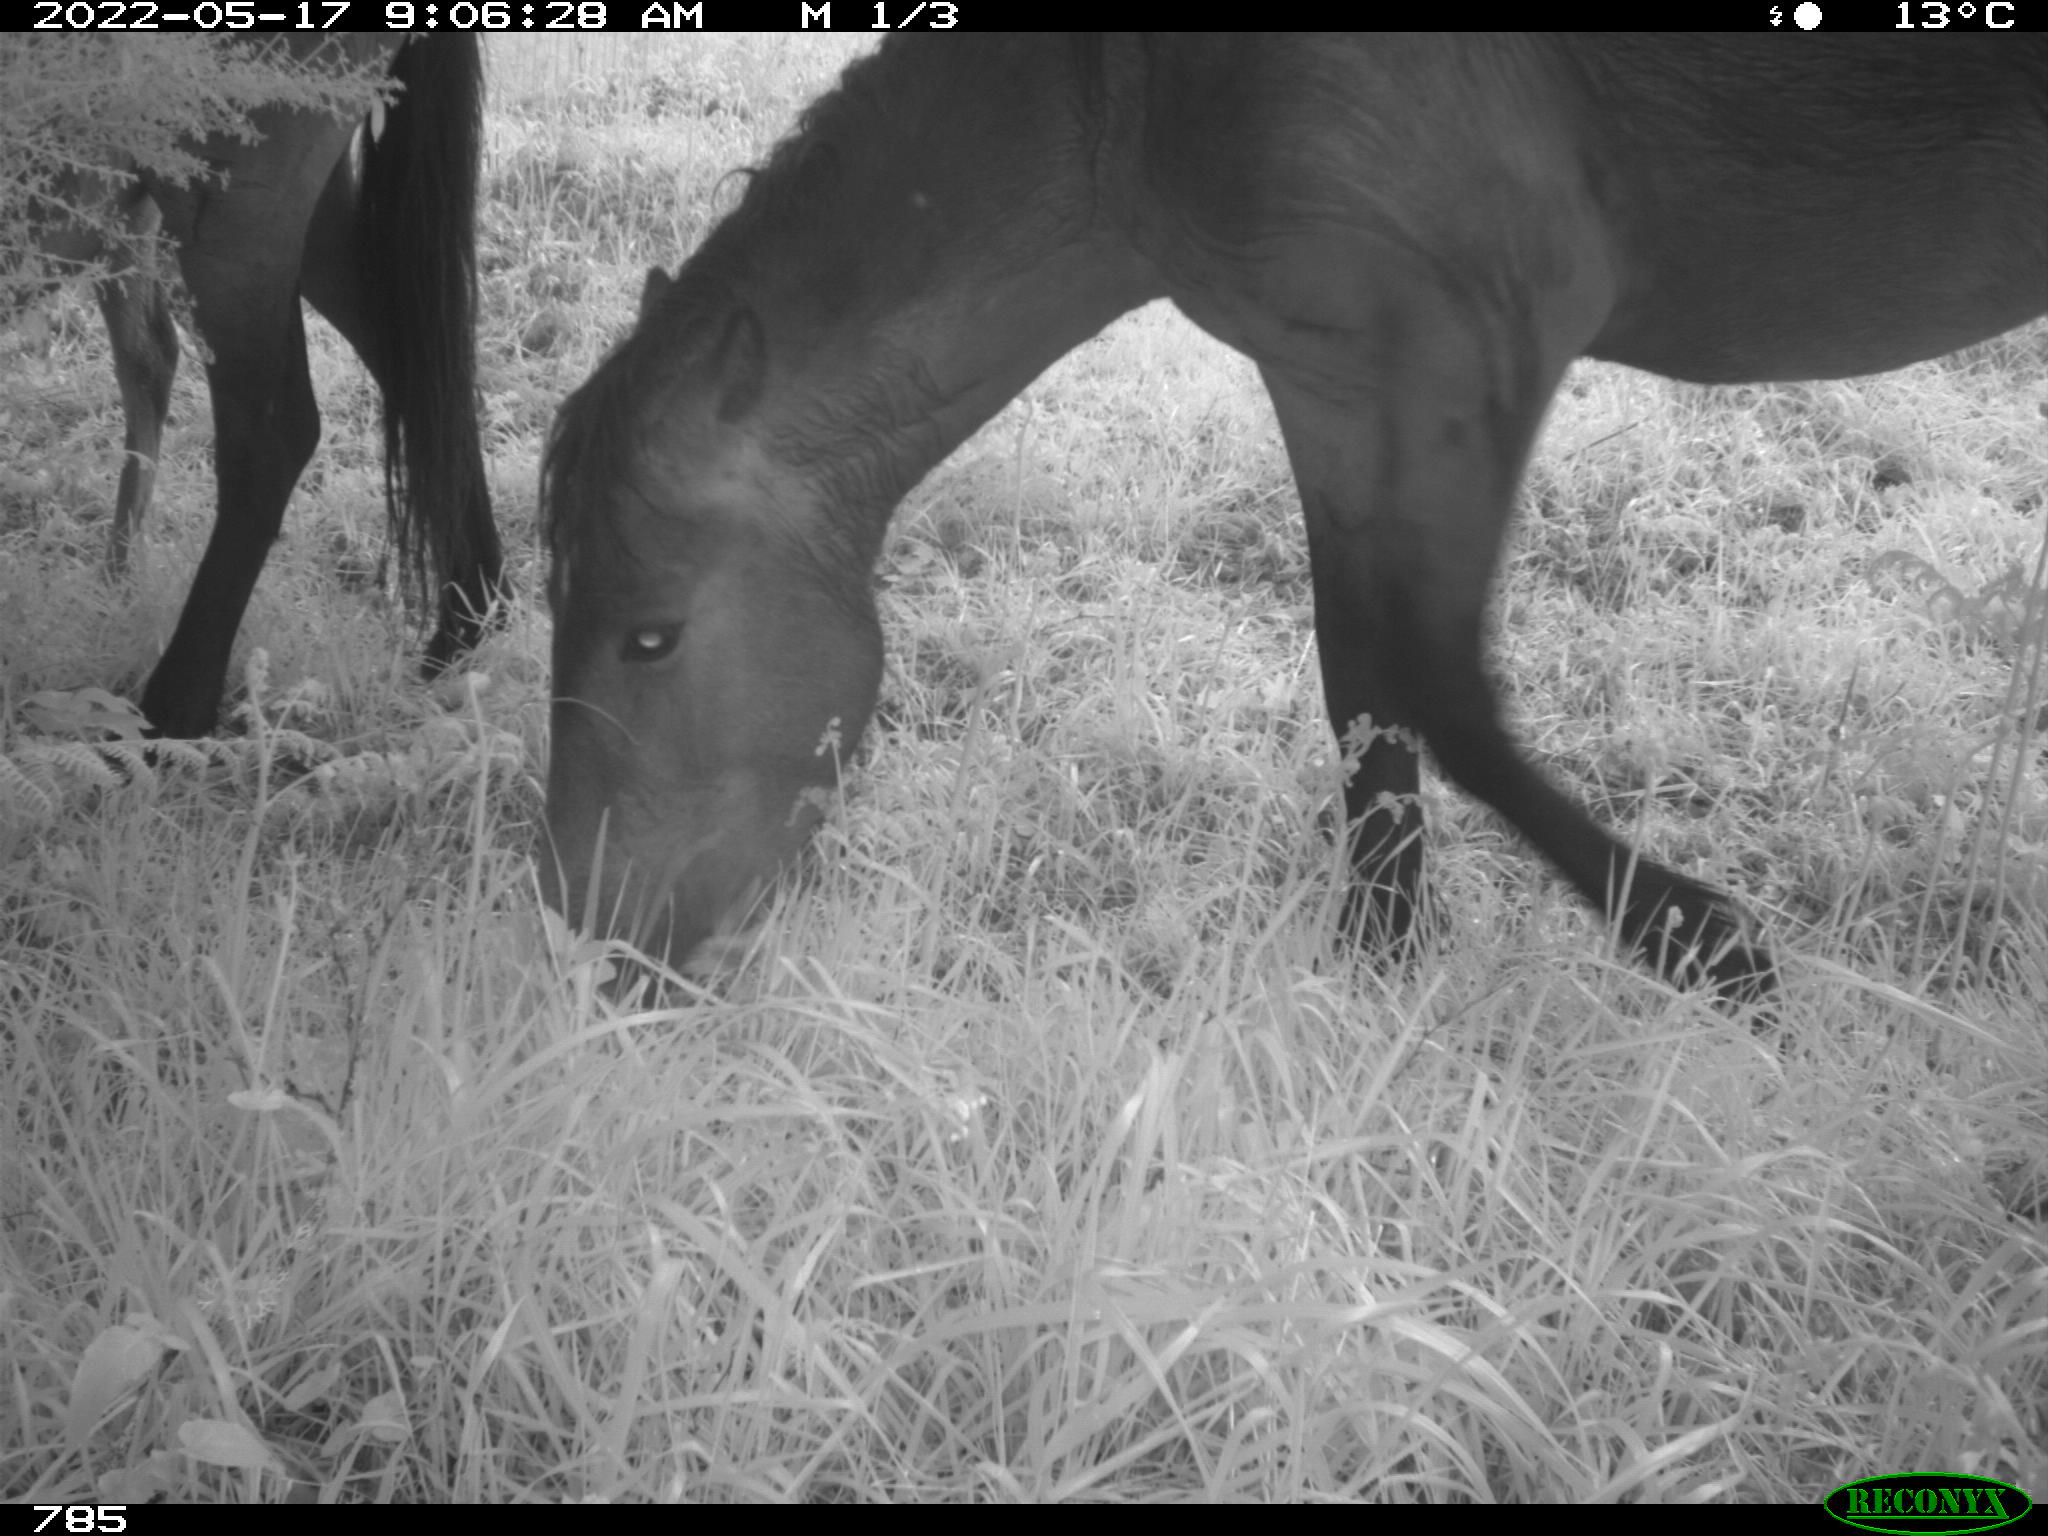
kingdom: Animalia
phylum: Chordata
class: Mammalia
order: Perissodactyla
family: Equidae
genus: Equus
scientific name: Equus caballus
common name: Horse
